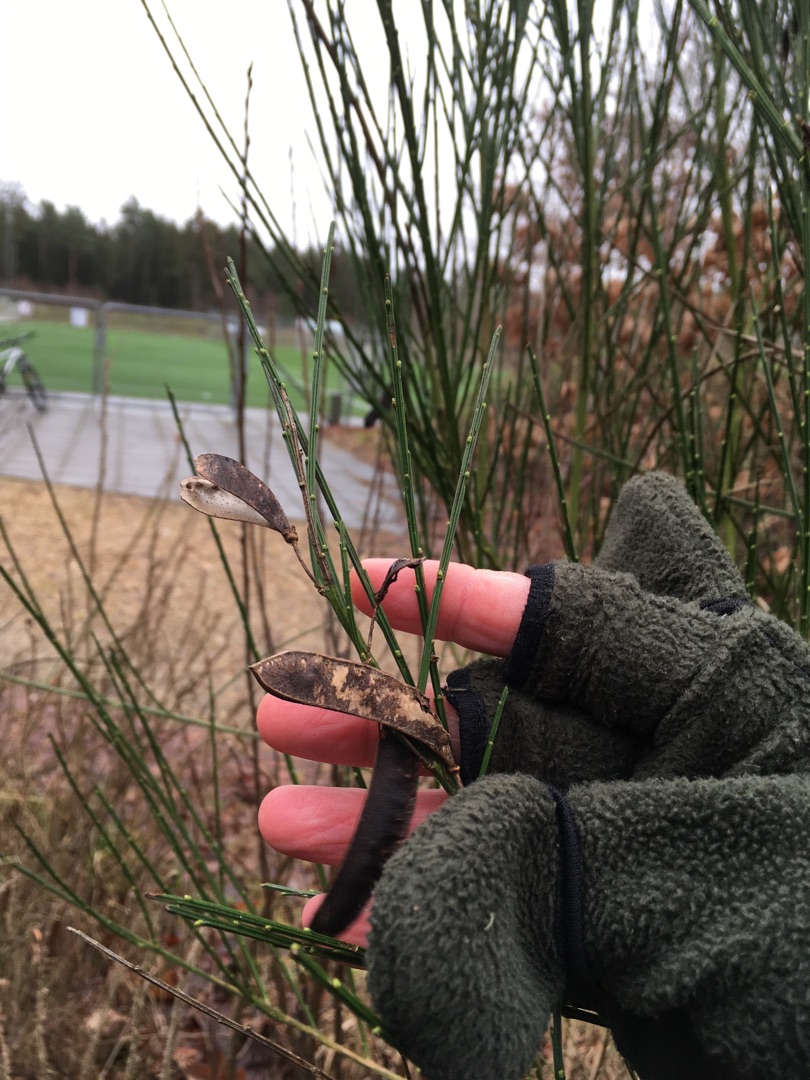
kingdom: Plantae
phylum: Tracheophyta
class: Magnoliopsida
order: Fabales
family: Fabaceae
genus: Cytisus
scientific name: Cytisus scoparius
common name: Almindelig gyvel
